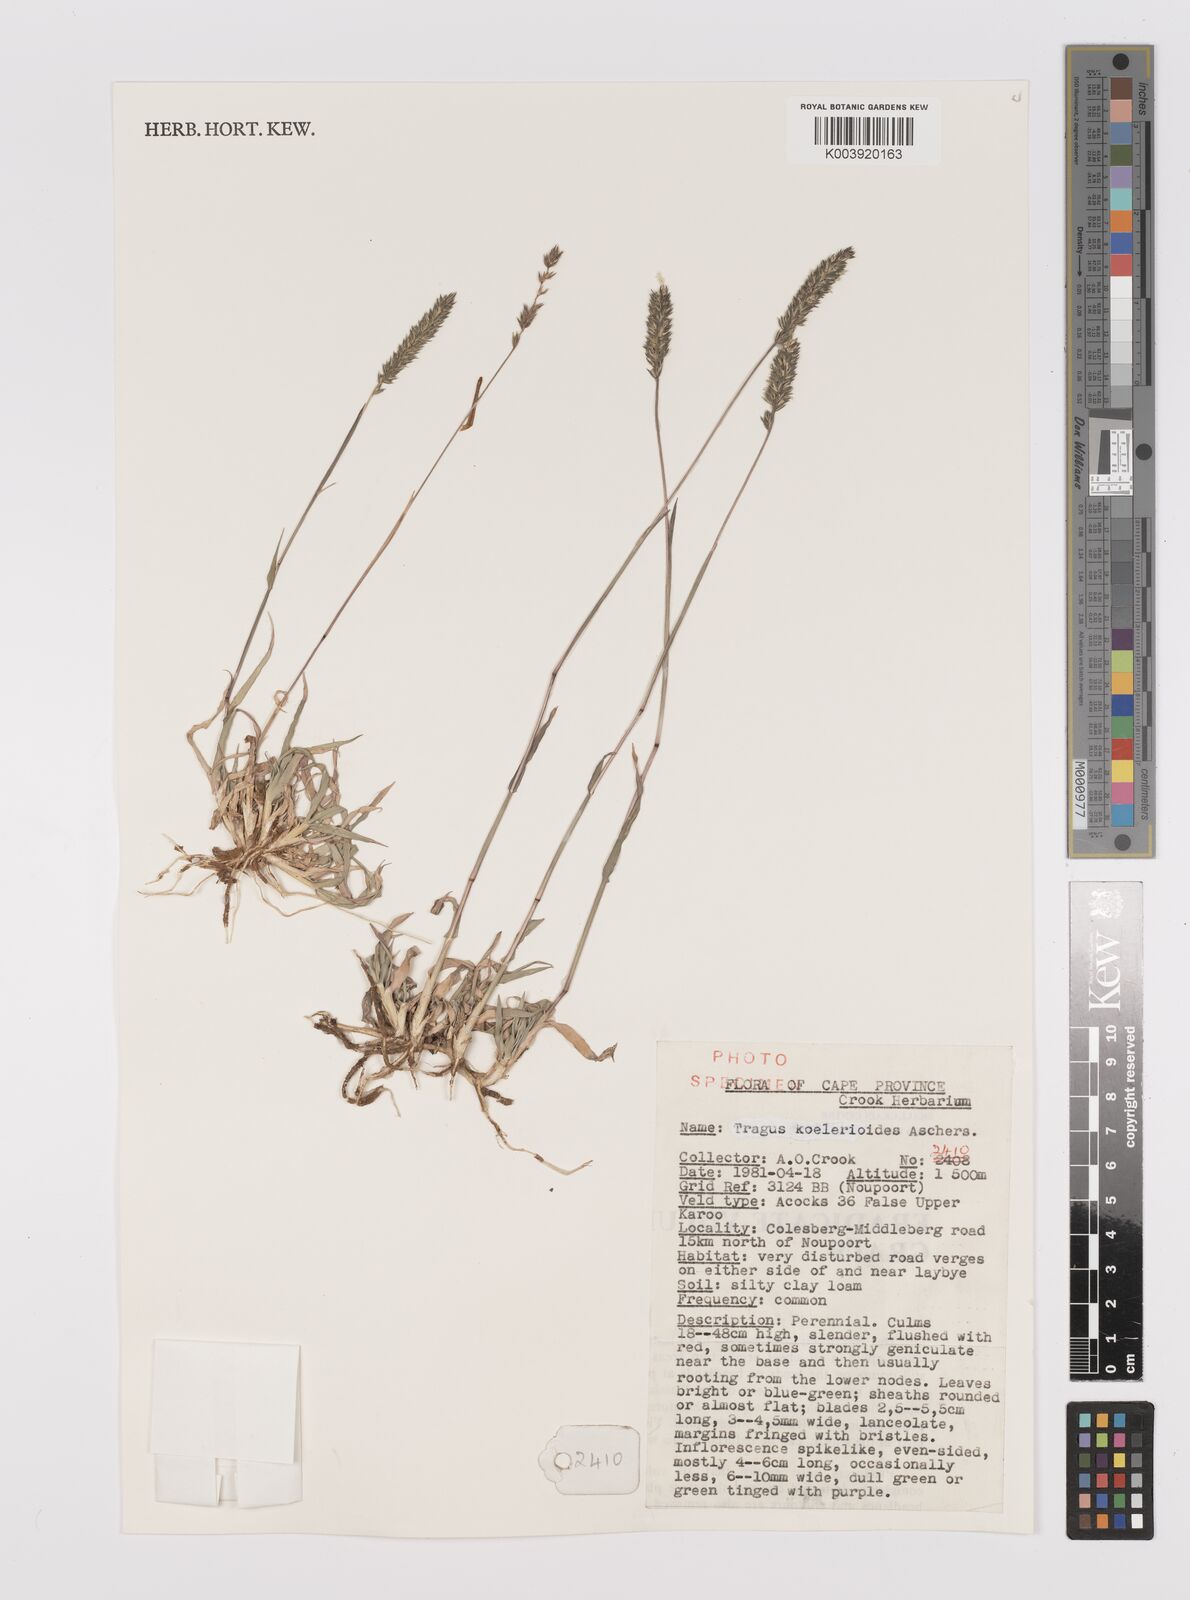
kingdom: Plantae
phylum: Tracheophyta
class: Liliopsida
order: Poales
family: Poaceae
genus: Tragus
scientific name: Tragus koelerioides
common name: Creeping carrot-seed grass
